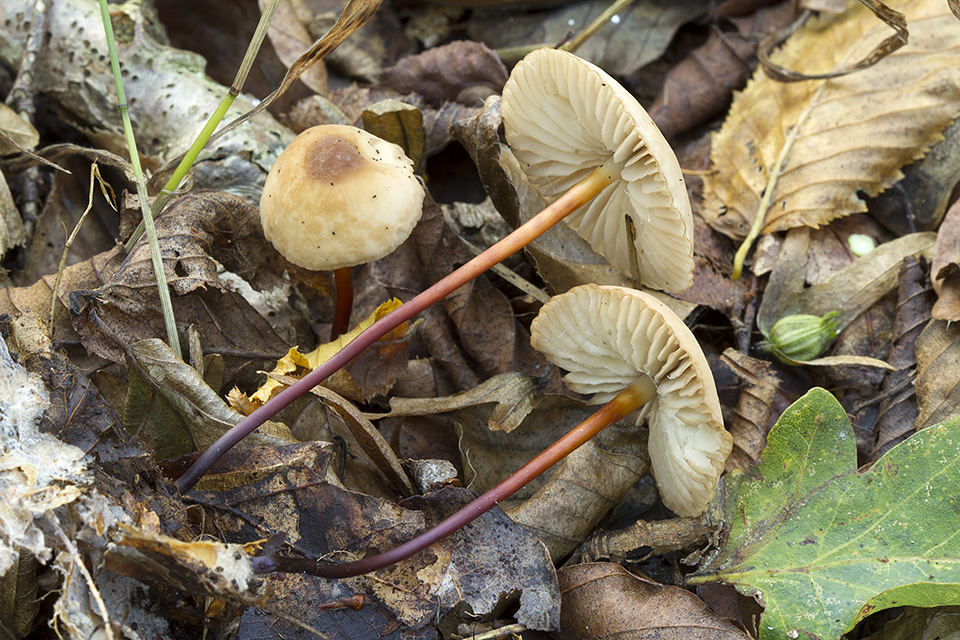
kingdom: Fungi
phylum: Basidiomycota
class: Agaricomycetes
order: Agaricales
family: Marasmiaceae
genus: Marasmius
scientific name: Marasmius cohaerens
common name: hornstokket bruskhat
